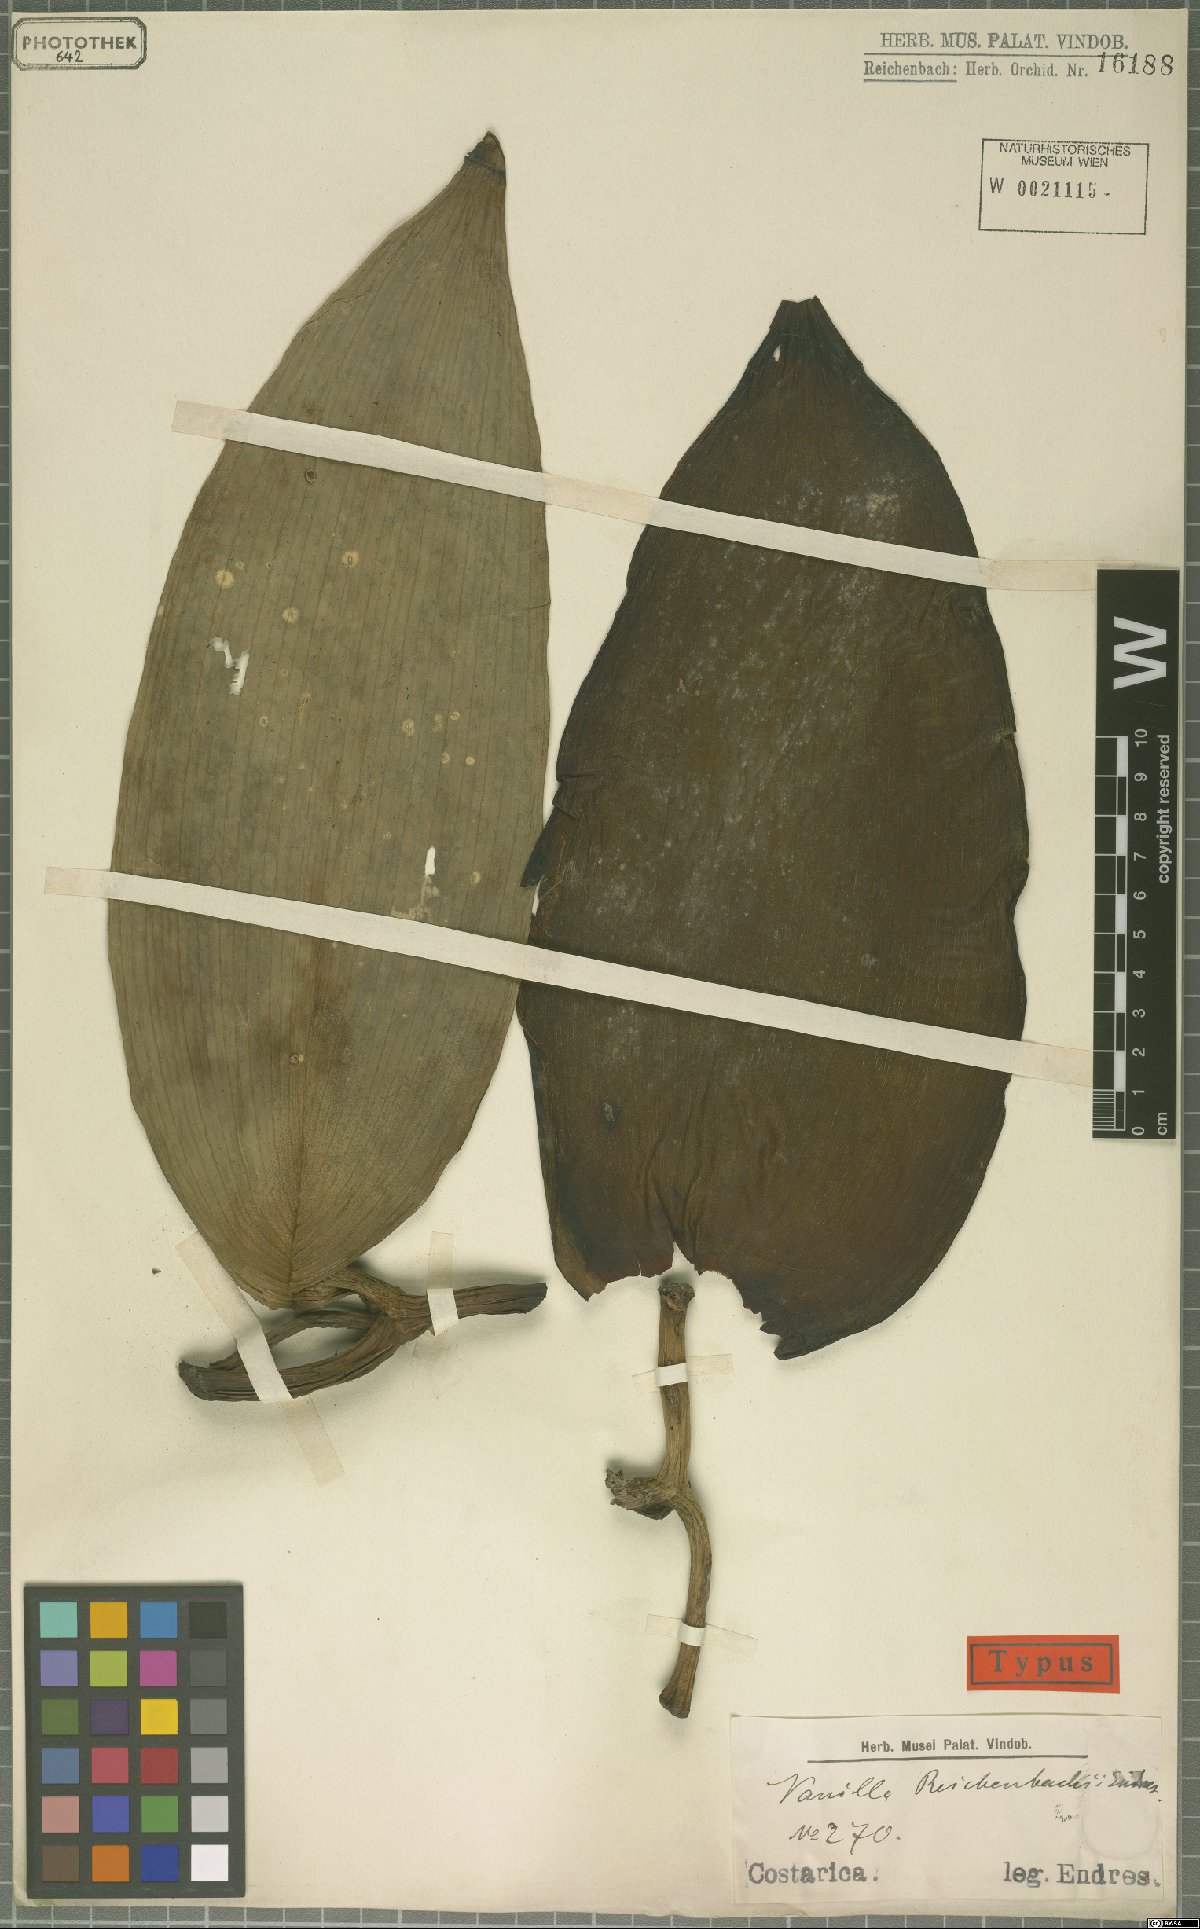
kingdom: Plantae
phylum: Tracheophyta
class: Liliopsida
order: Asparagales
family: Orchidaceae
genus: Vanilla
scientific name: Vanilla pompona
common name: West indian vanilla
